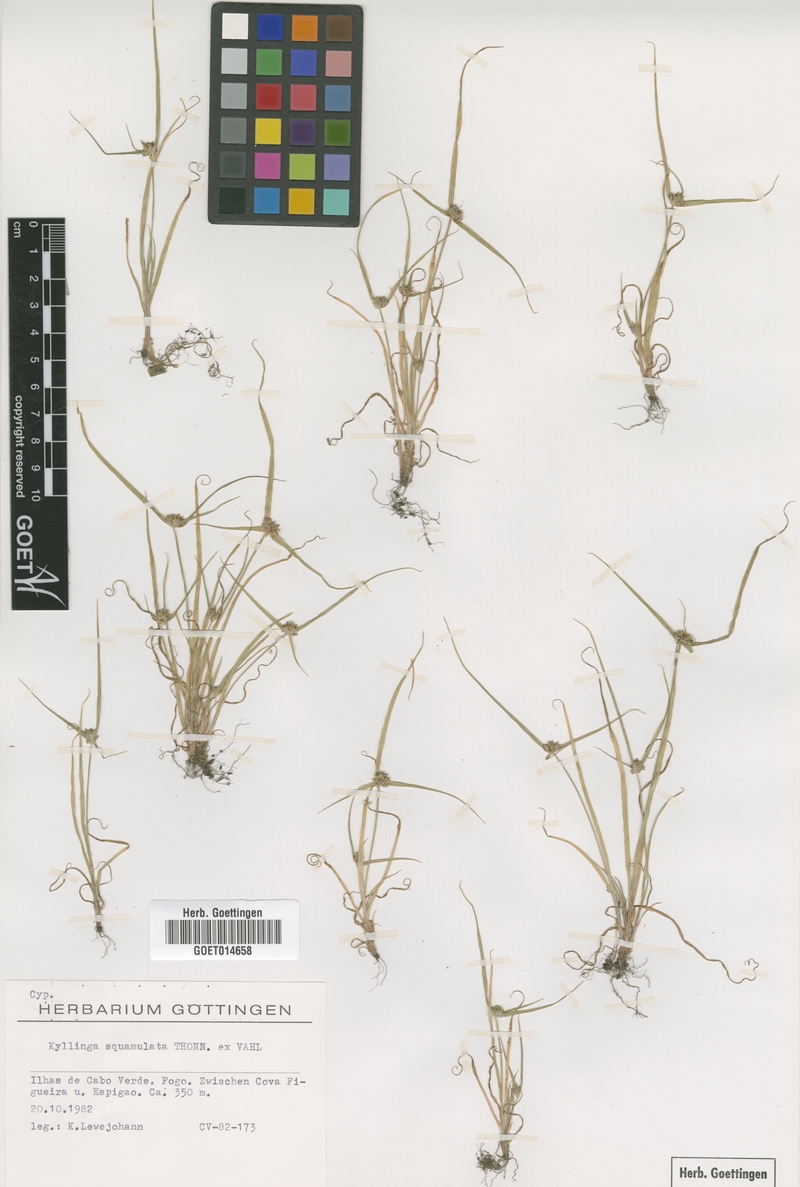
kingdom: Plantae
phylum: Tracheophyta
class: Liliopsida
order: Poales
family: Cyperaceae
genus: Cyperus
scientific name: Cyperus metzii
